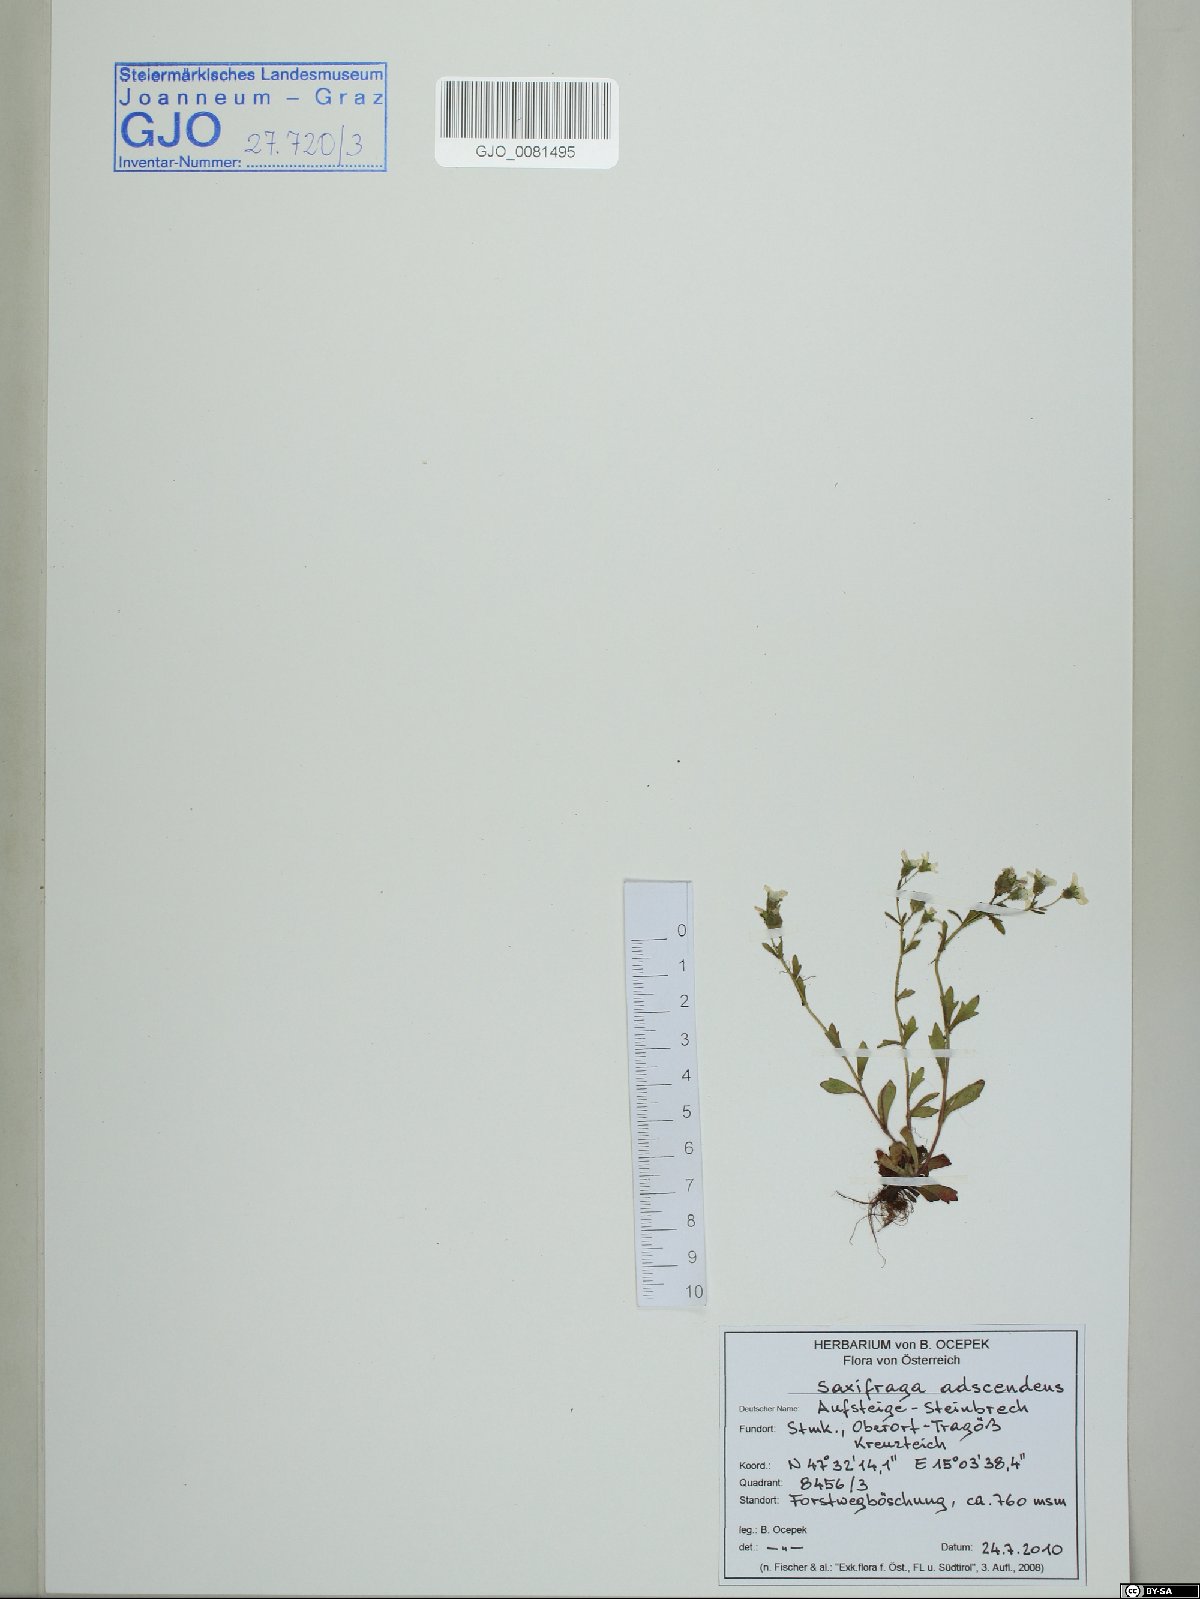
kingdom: Plantae
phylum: Tracheophyta
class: Magnoliopsida
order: Saxifragales
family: Saxifragaceae
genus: Saxifraga
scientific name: Saxifraga adscendens
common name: Ascending saxifrage
